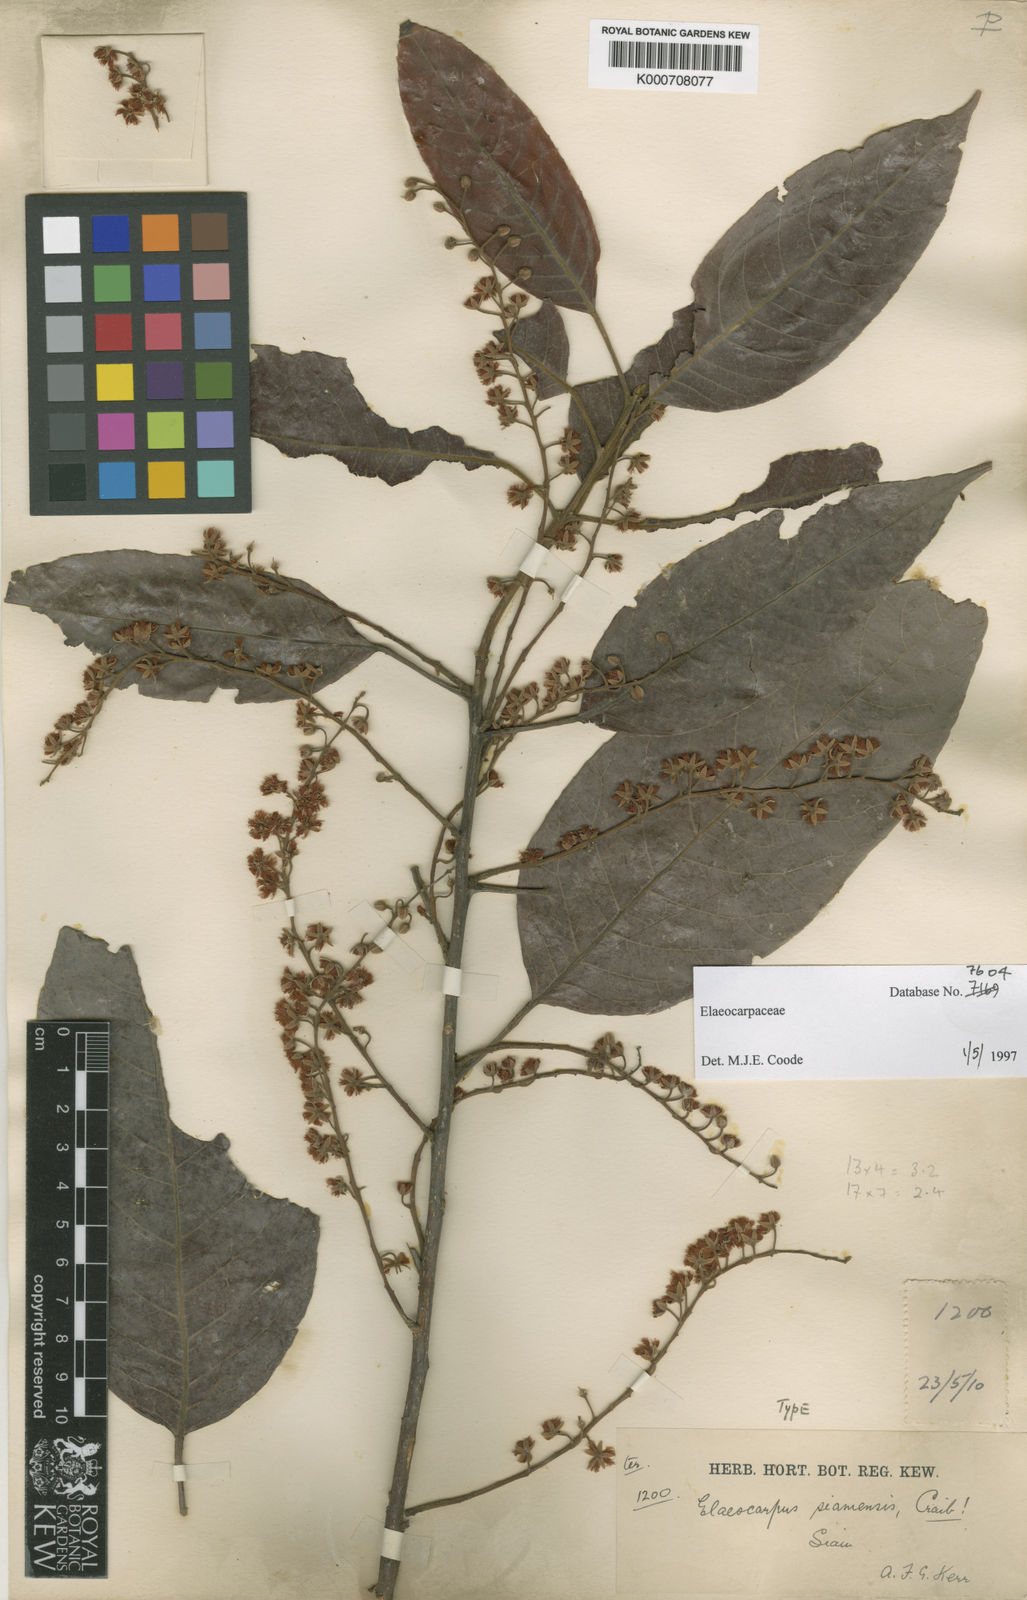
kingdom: Plantae
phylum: Tracheophyta
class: Magnoliopsida
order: Oxalidales
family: Elaeocarpaceae
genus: Elaeocarpus
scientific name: Elaeocarpus stipularis
